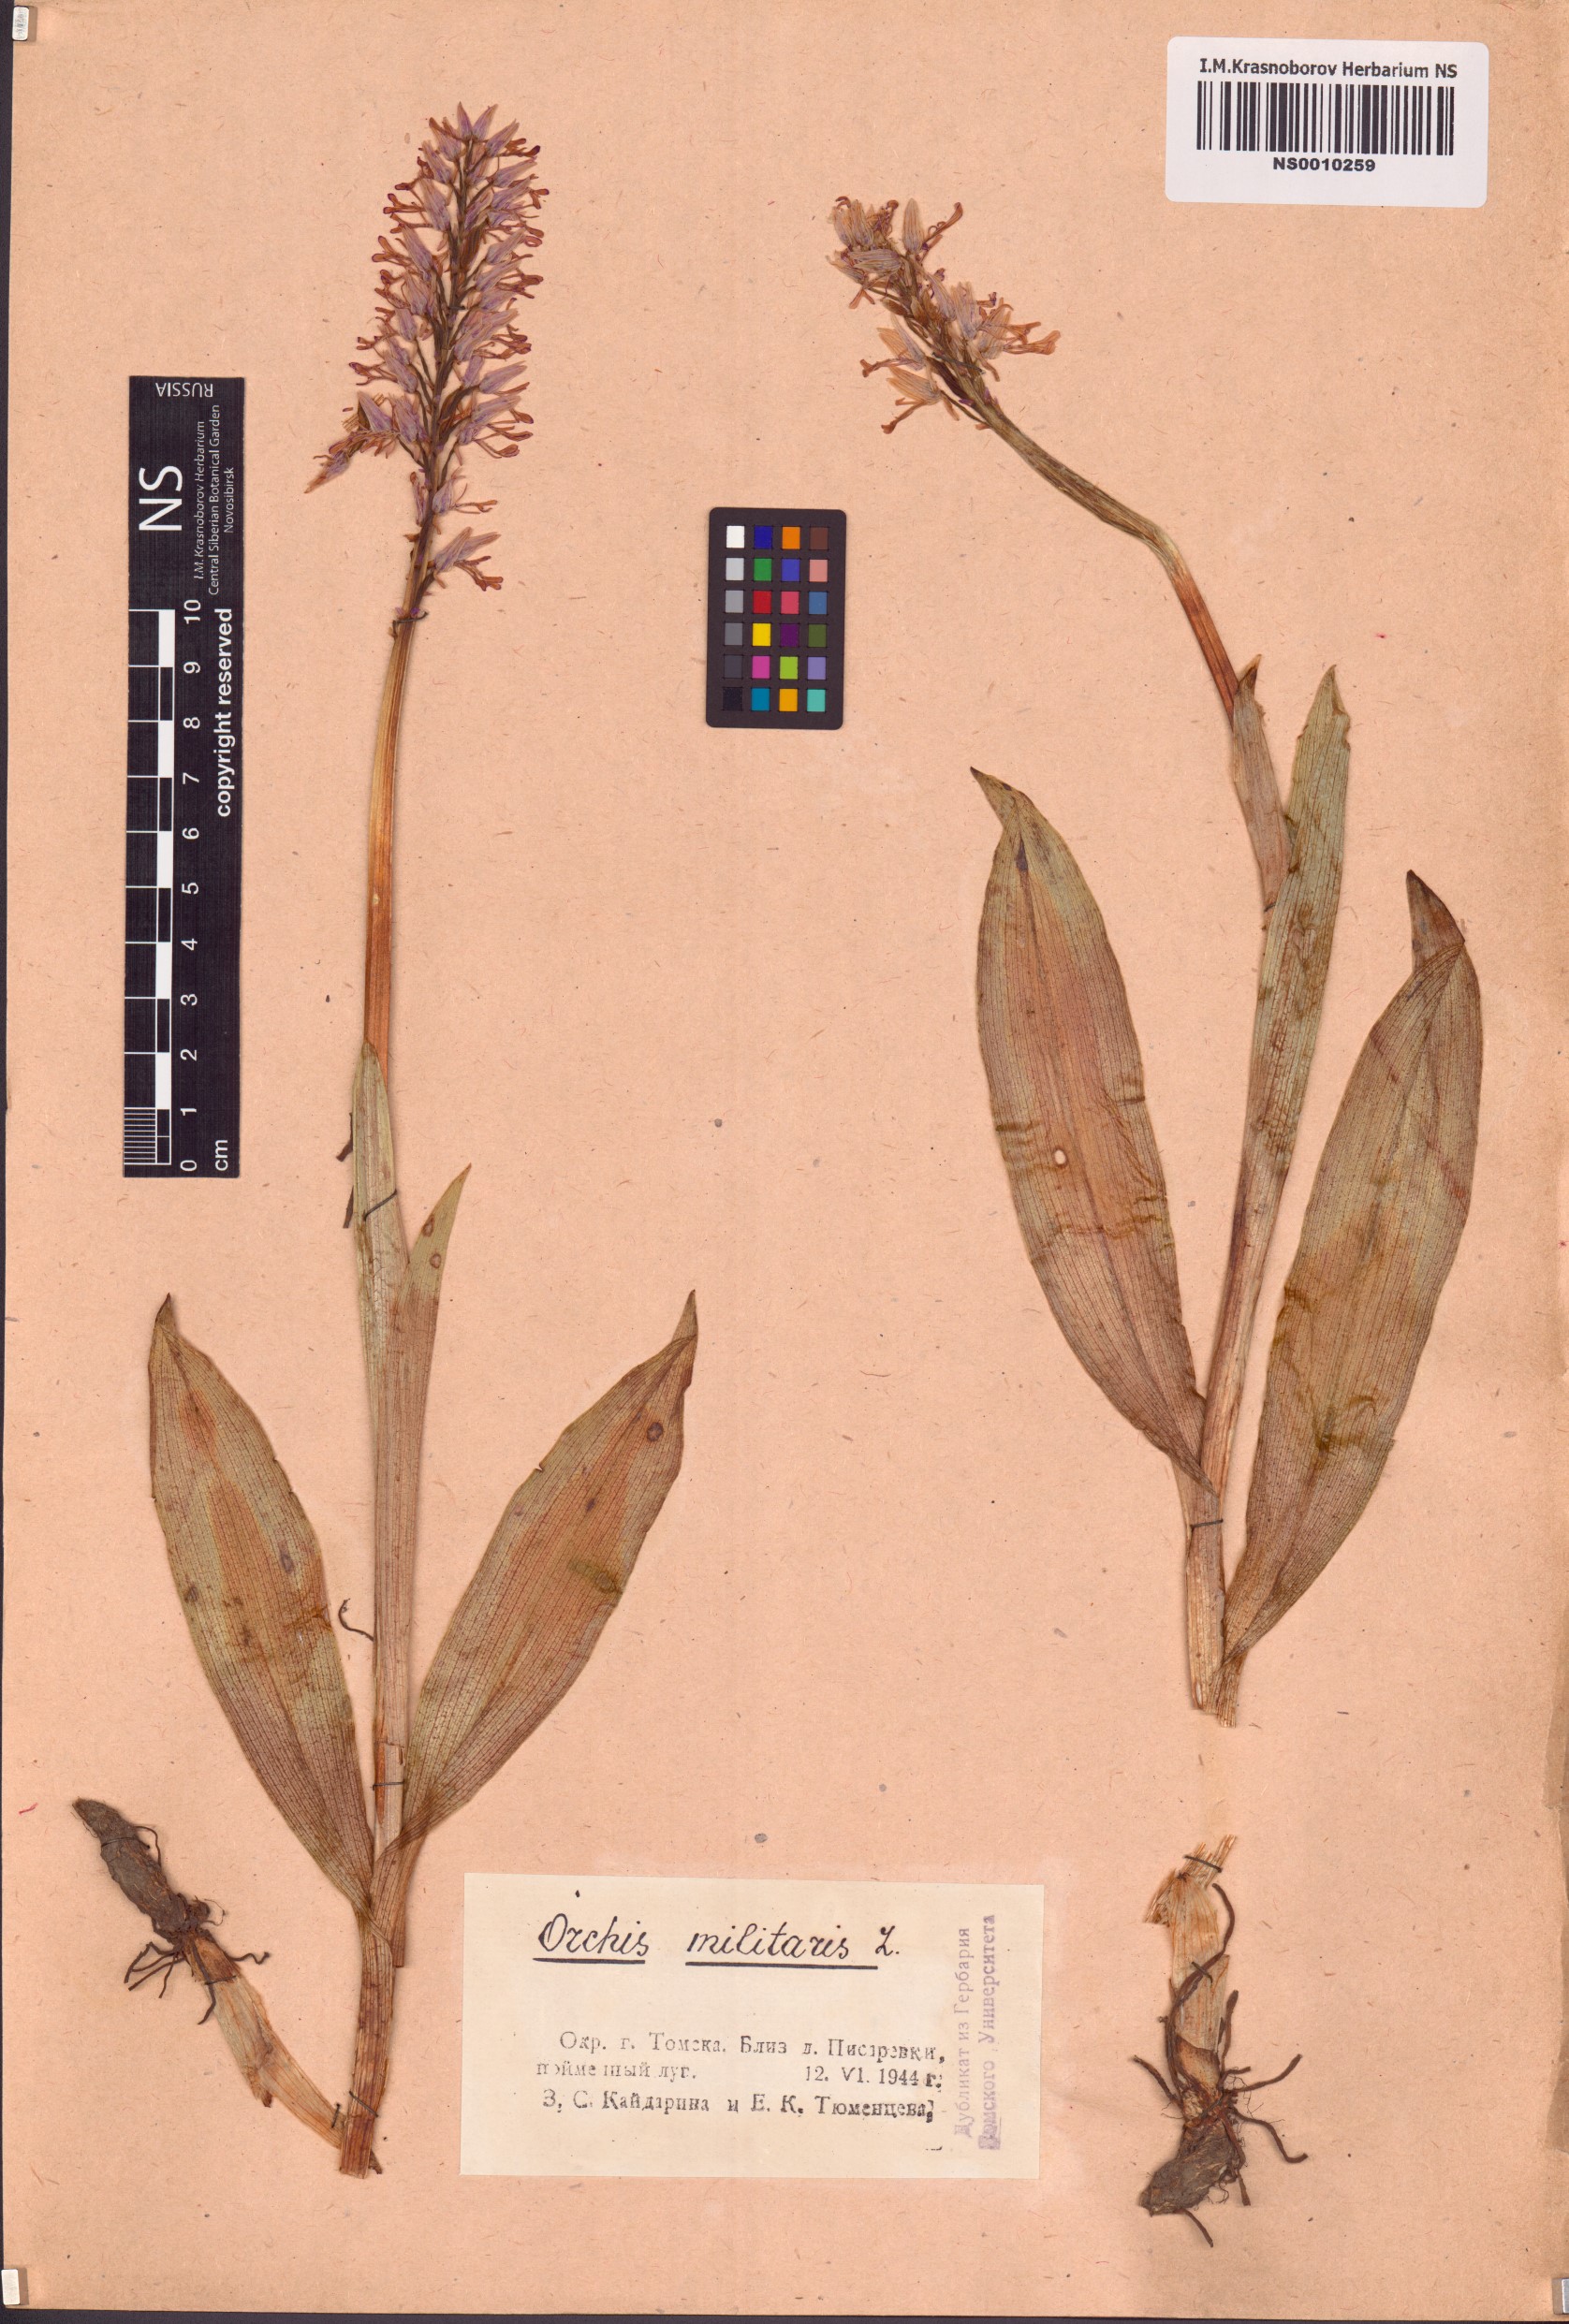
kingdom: Plantae
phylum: Tracheophyta
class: Liliopsida
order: Asparagales
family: Orchidaceae
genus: Orchis
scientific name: Orchis militaris
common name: Military orchid
